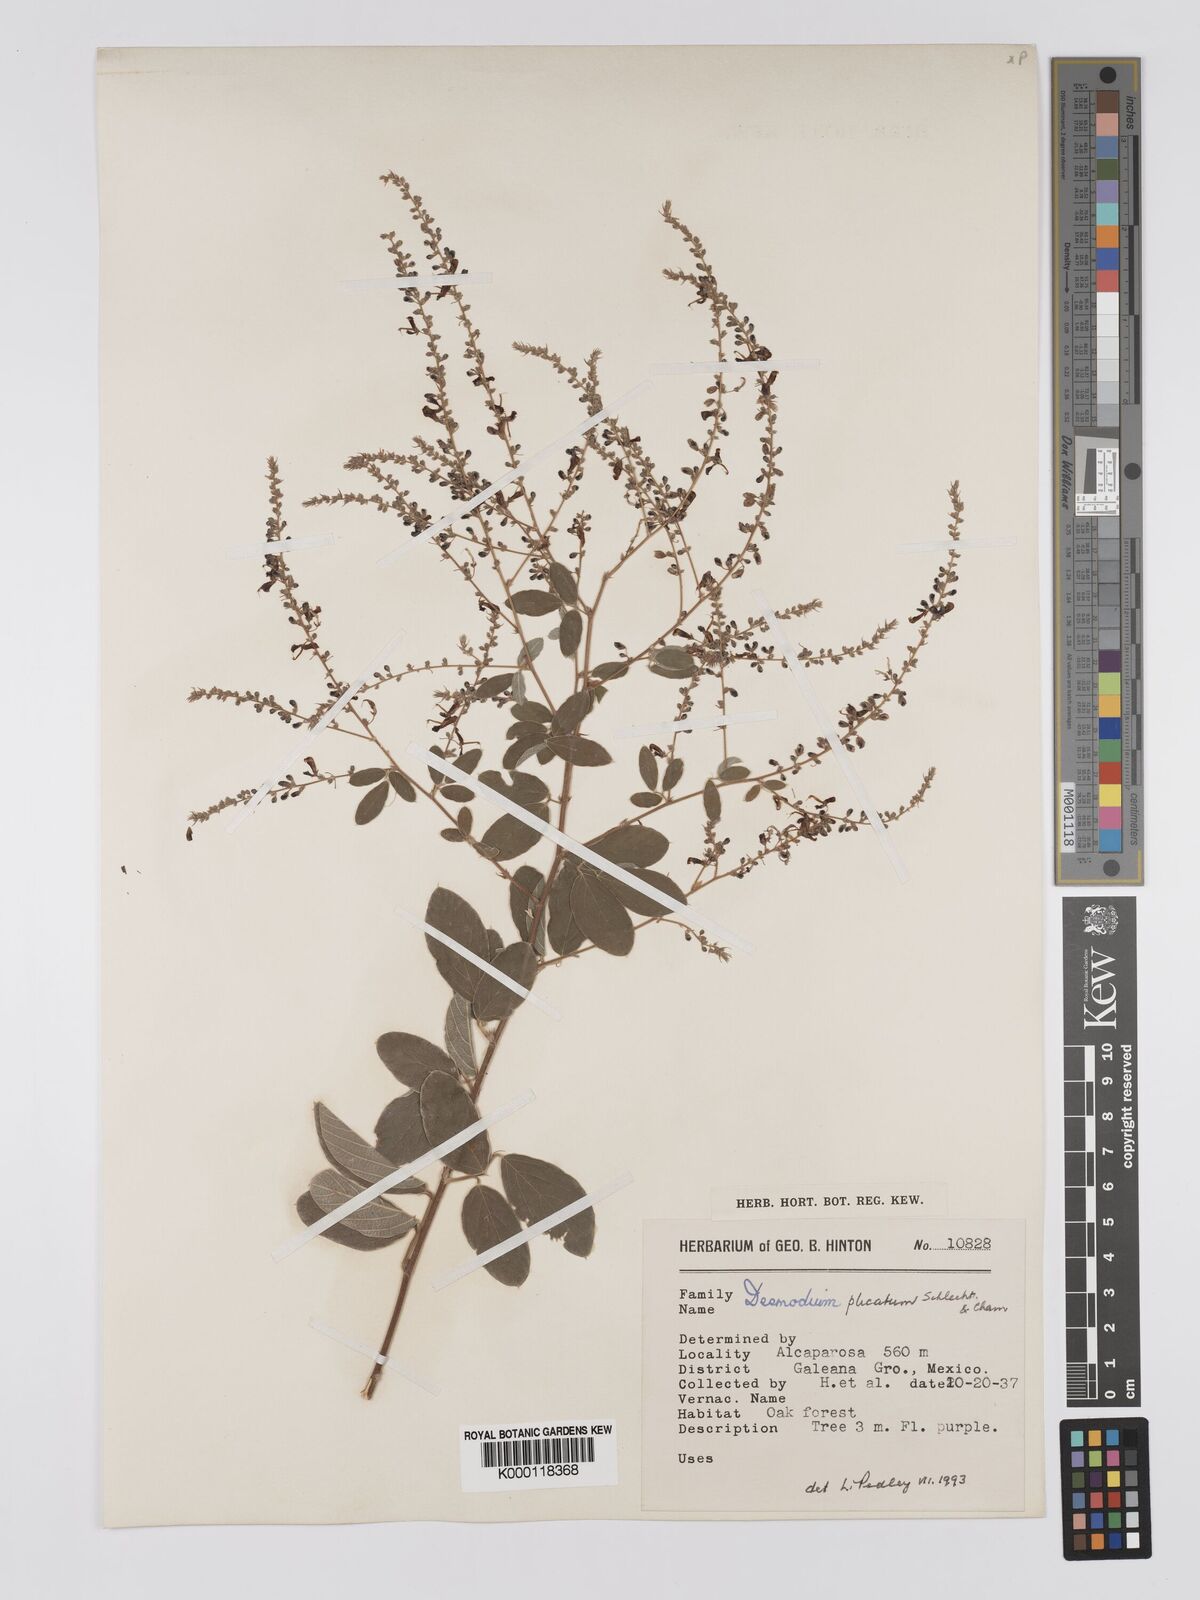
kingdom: Plantae
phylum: Tracheophyta
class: Magnoliopsida
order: Fabales
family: Fabaceae
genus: Desmodium
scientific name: Desmodium plicatum
